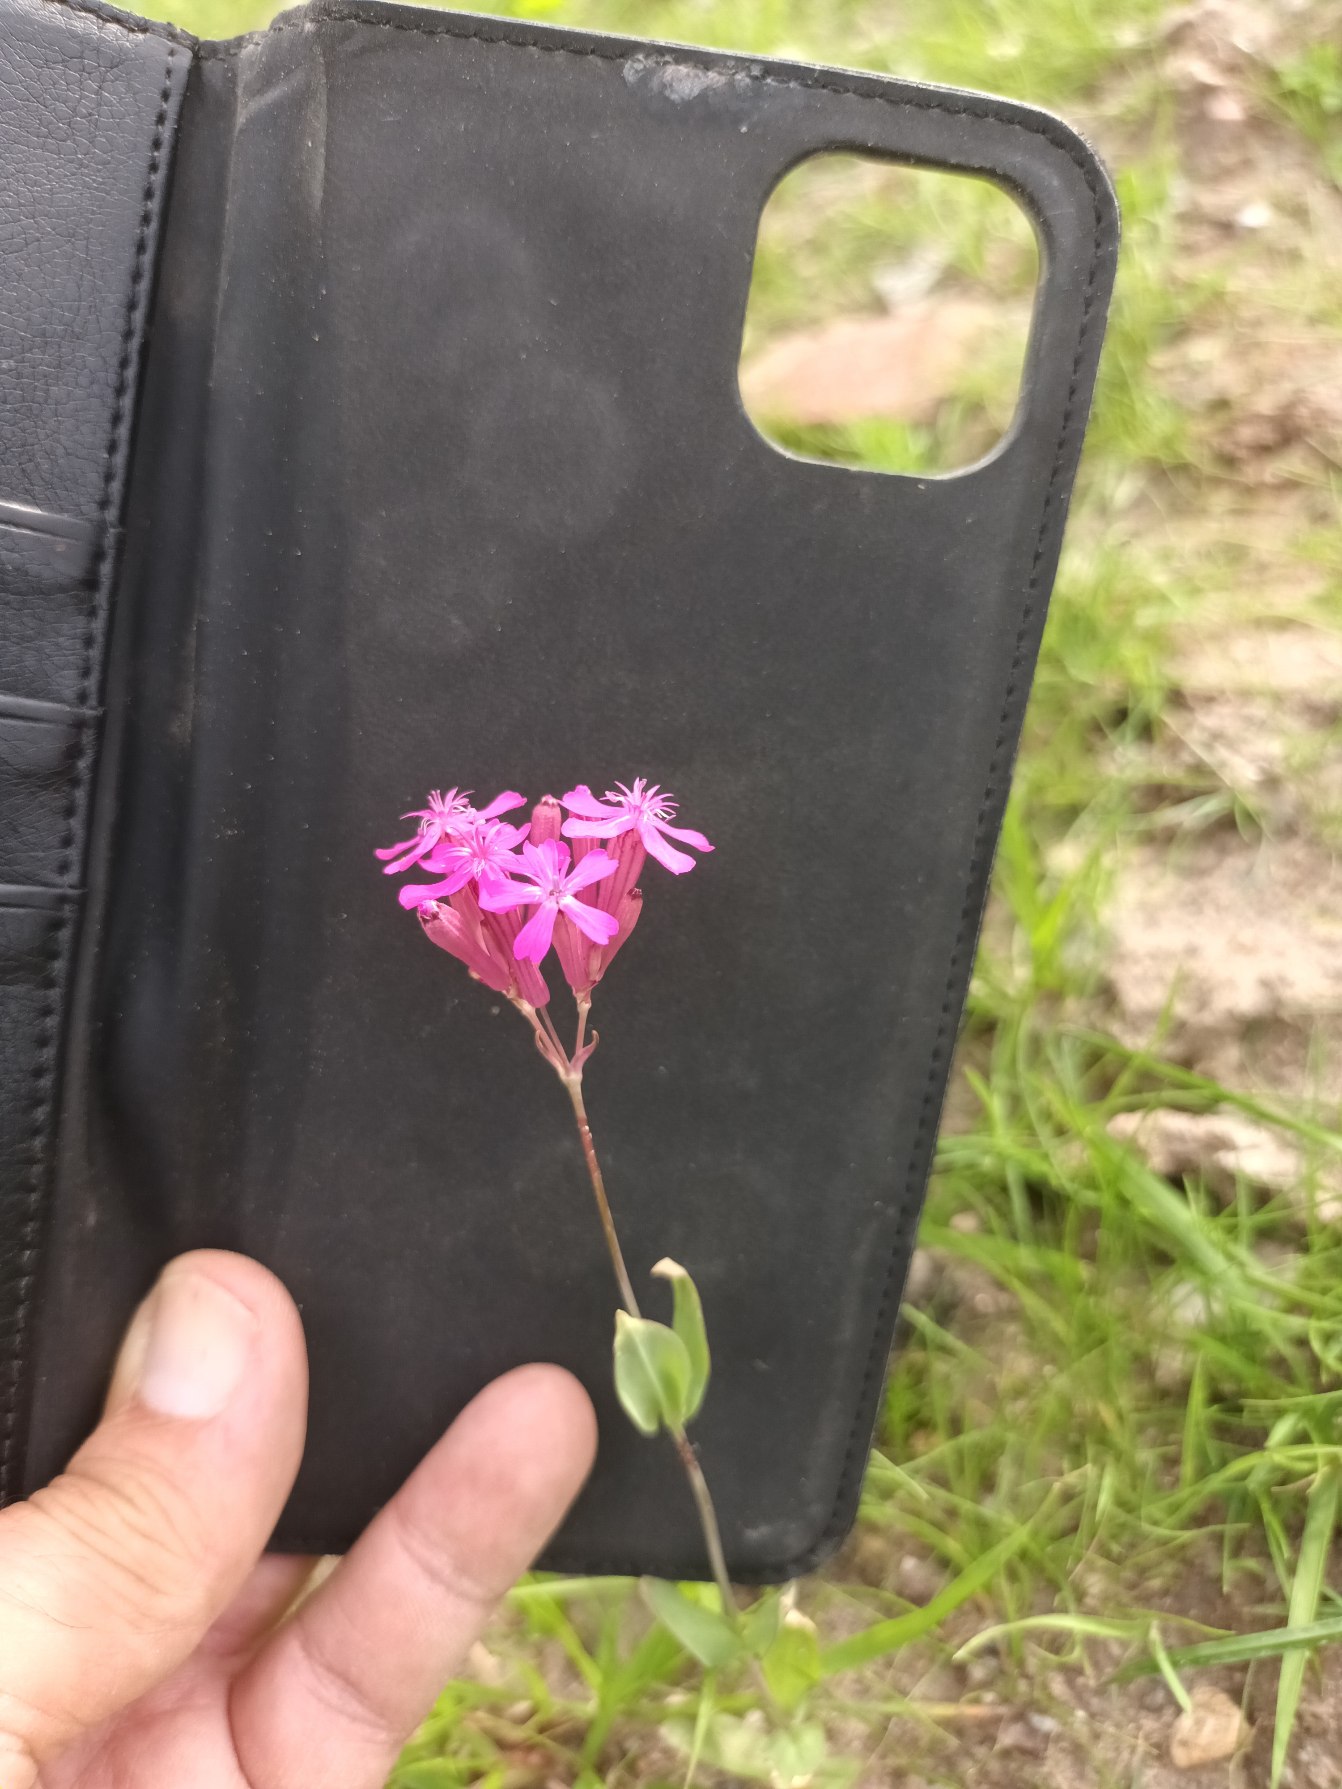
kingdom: Plantae
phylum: Tracheophyta
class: Magnoliopsida
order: Caryophyllales
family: Caryophyllaceae
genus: Atocion
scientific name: Atocion armeria
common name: Knippe-limurt
